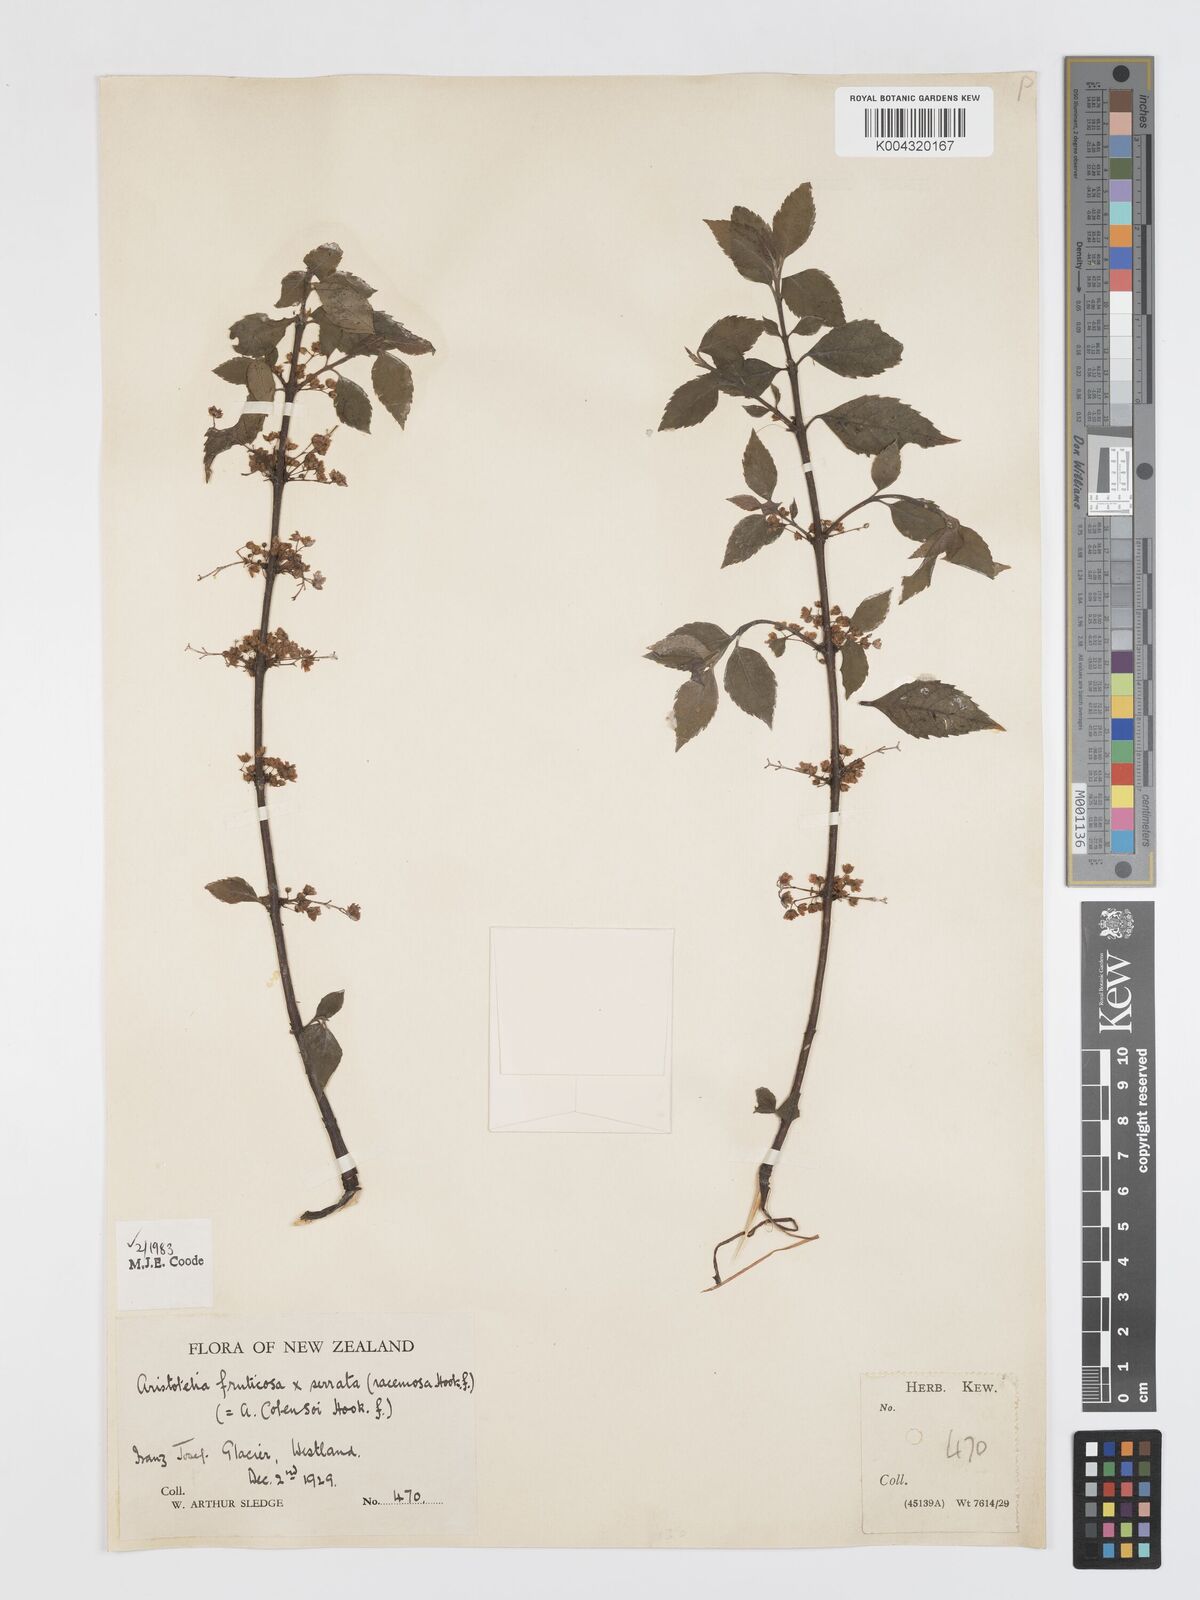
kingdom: Plantae
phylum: Tracheophyta
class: Magnoliopsida
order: Oxalidales
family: Elaeocarpaceae
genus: Aristotelia
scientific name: Aristotelia fruticosa
